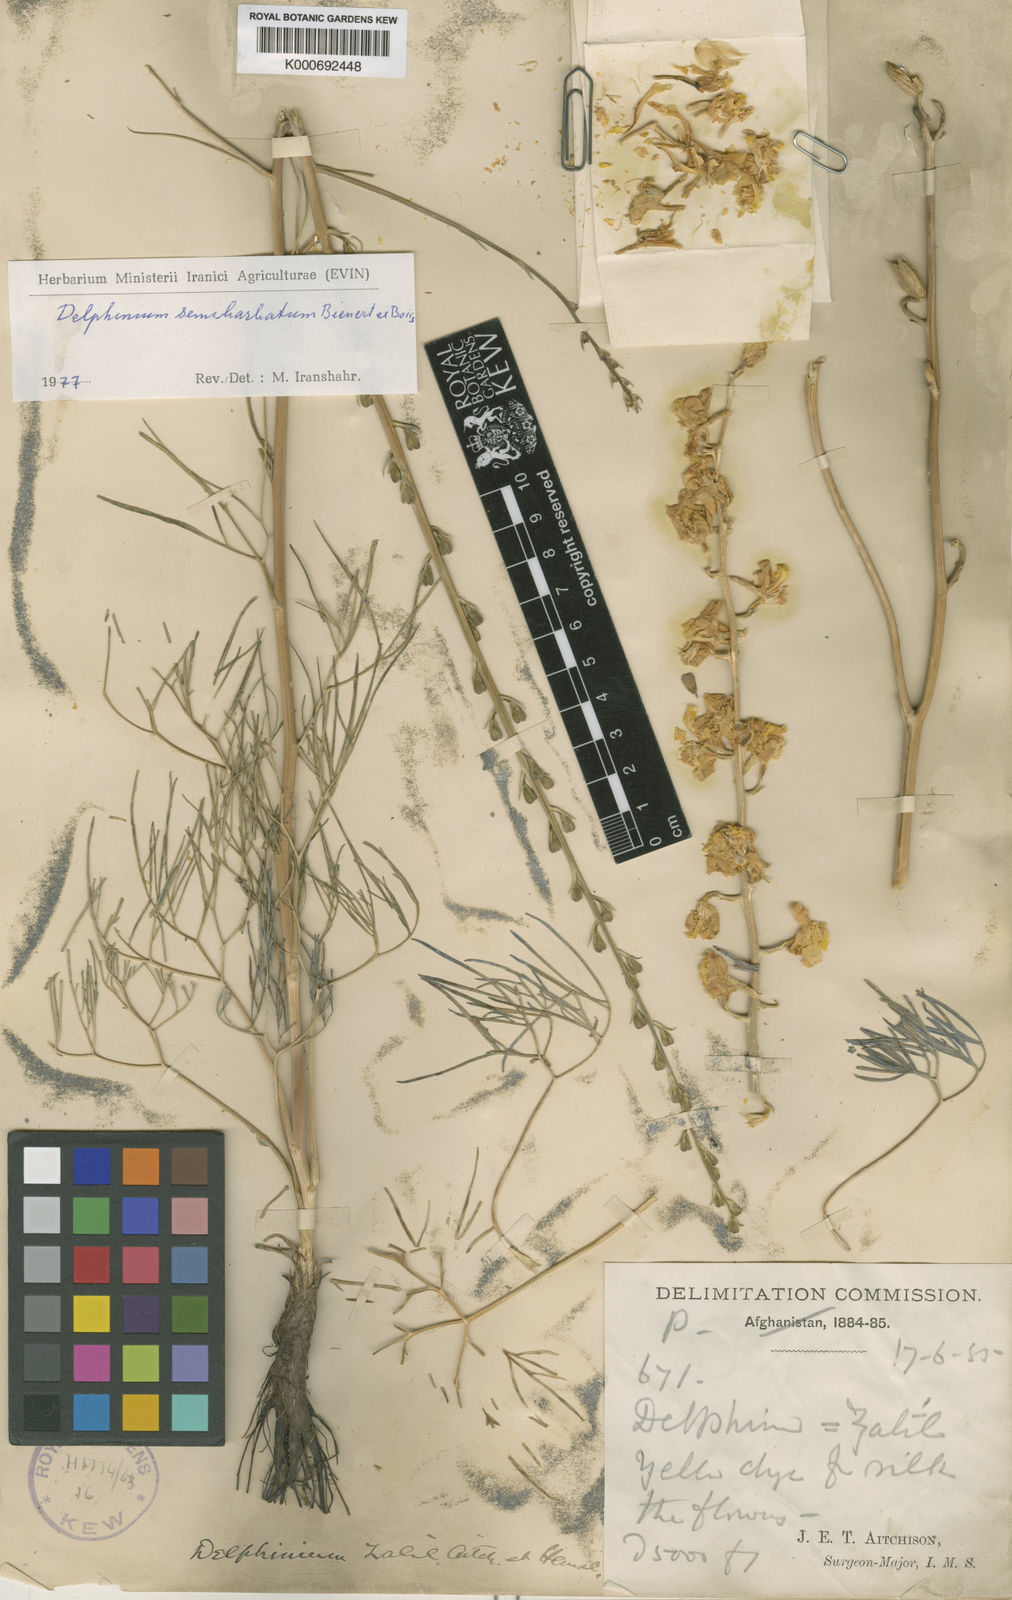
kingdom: Plantae
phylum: Tracheophyta
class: Magnoliopsida
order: Ranunculales
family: Ranunculaceae
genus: Delphinium
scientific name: Delphinium semibarbatum
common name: Zalil
